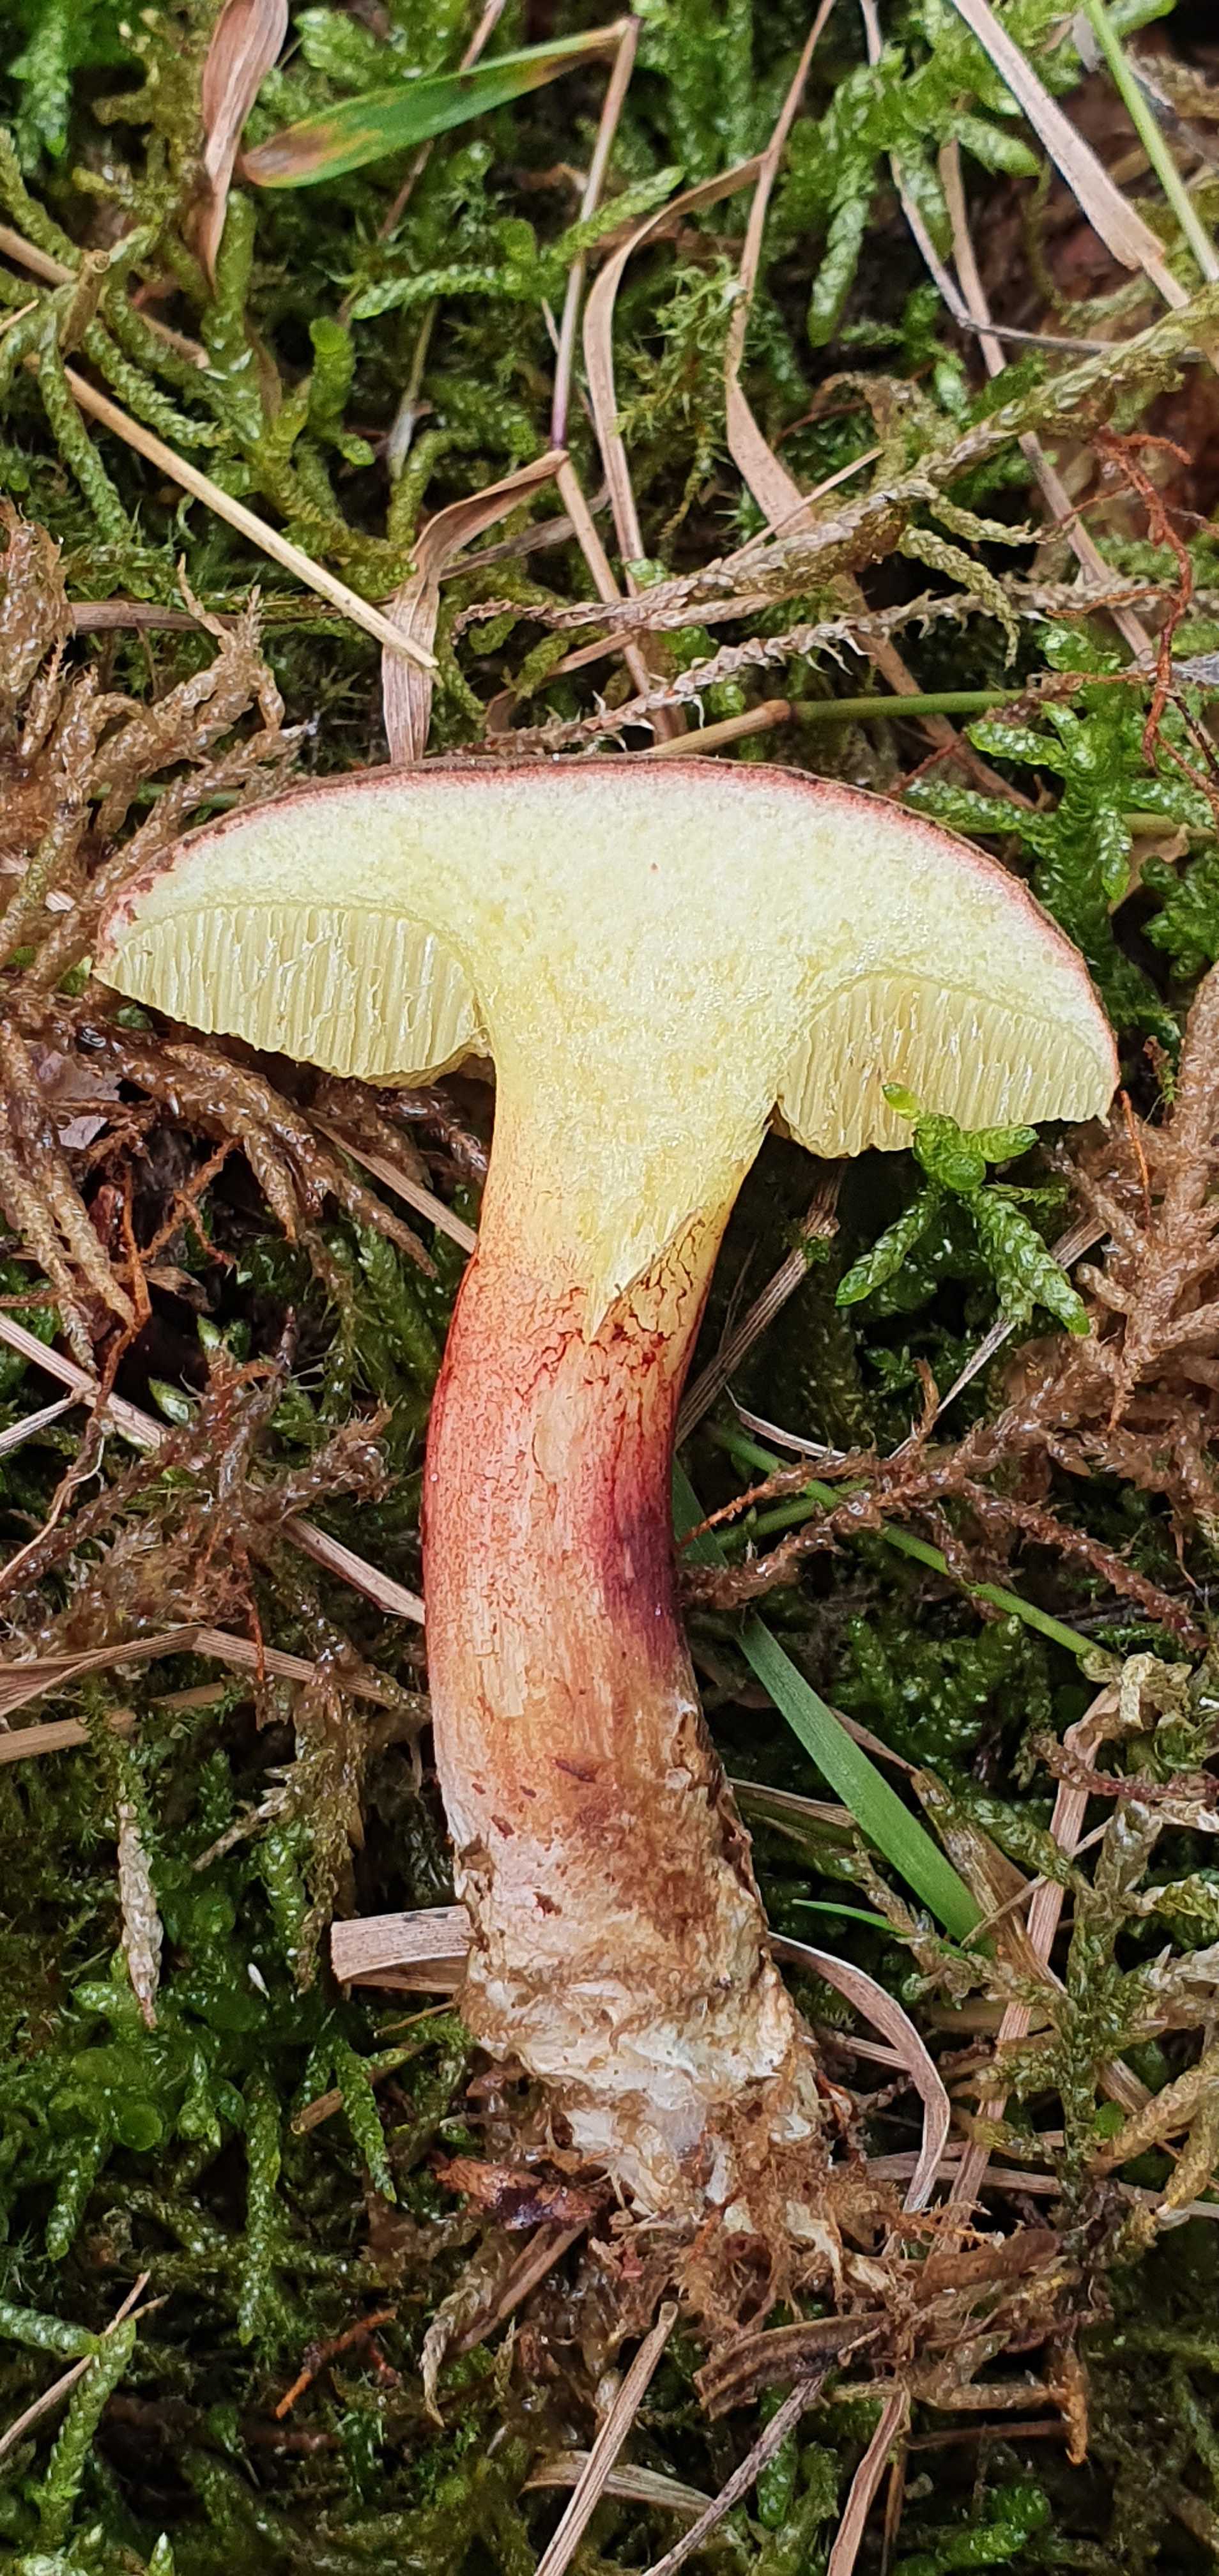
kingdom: Fungi
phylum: Basidiomycota
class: Agaricomycetes
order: Boletales
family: Boletaceae
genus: Caloboletus
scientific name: Caloboletus calopus
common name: skønfodet rørhat
